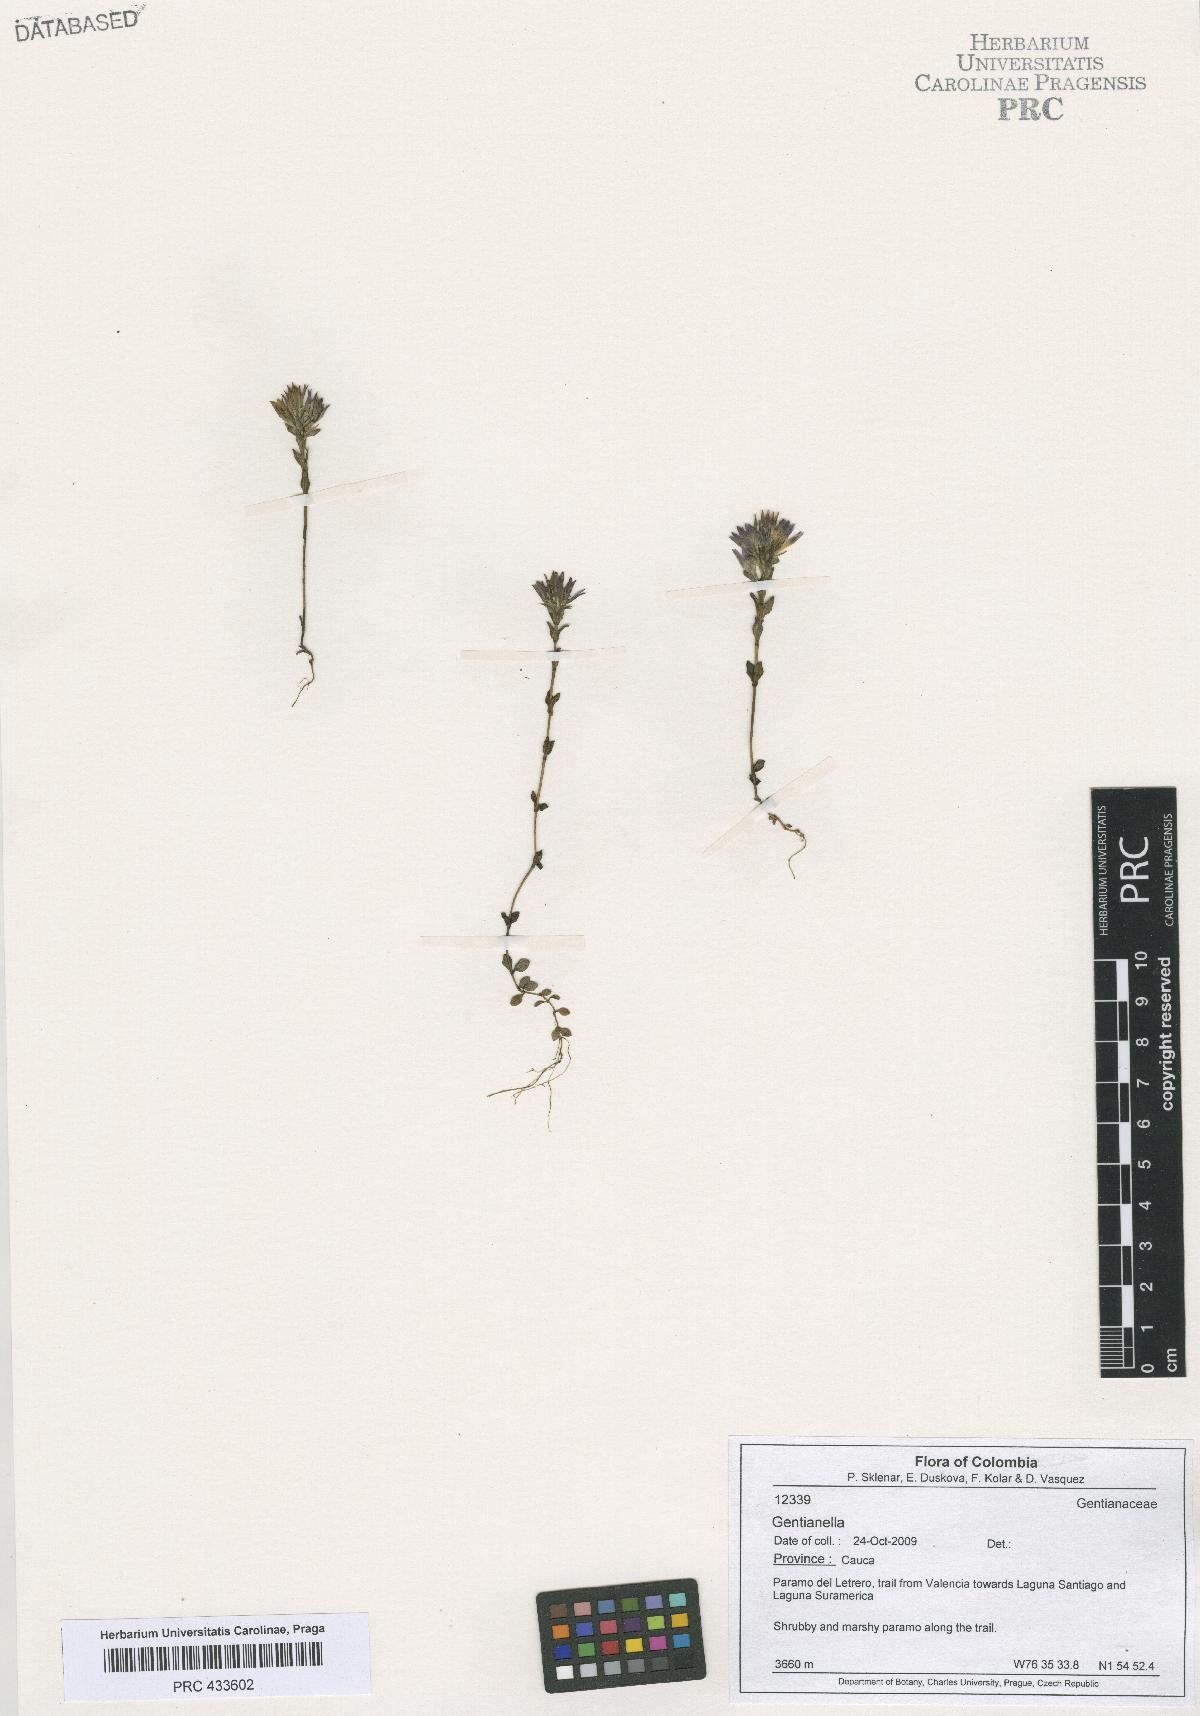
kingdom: Plantae
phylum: Tracheophyta
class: Magnoliopsida
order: Gentianales
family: Gentianaceae
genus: Gentianella
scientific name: Gentianella
